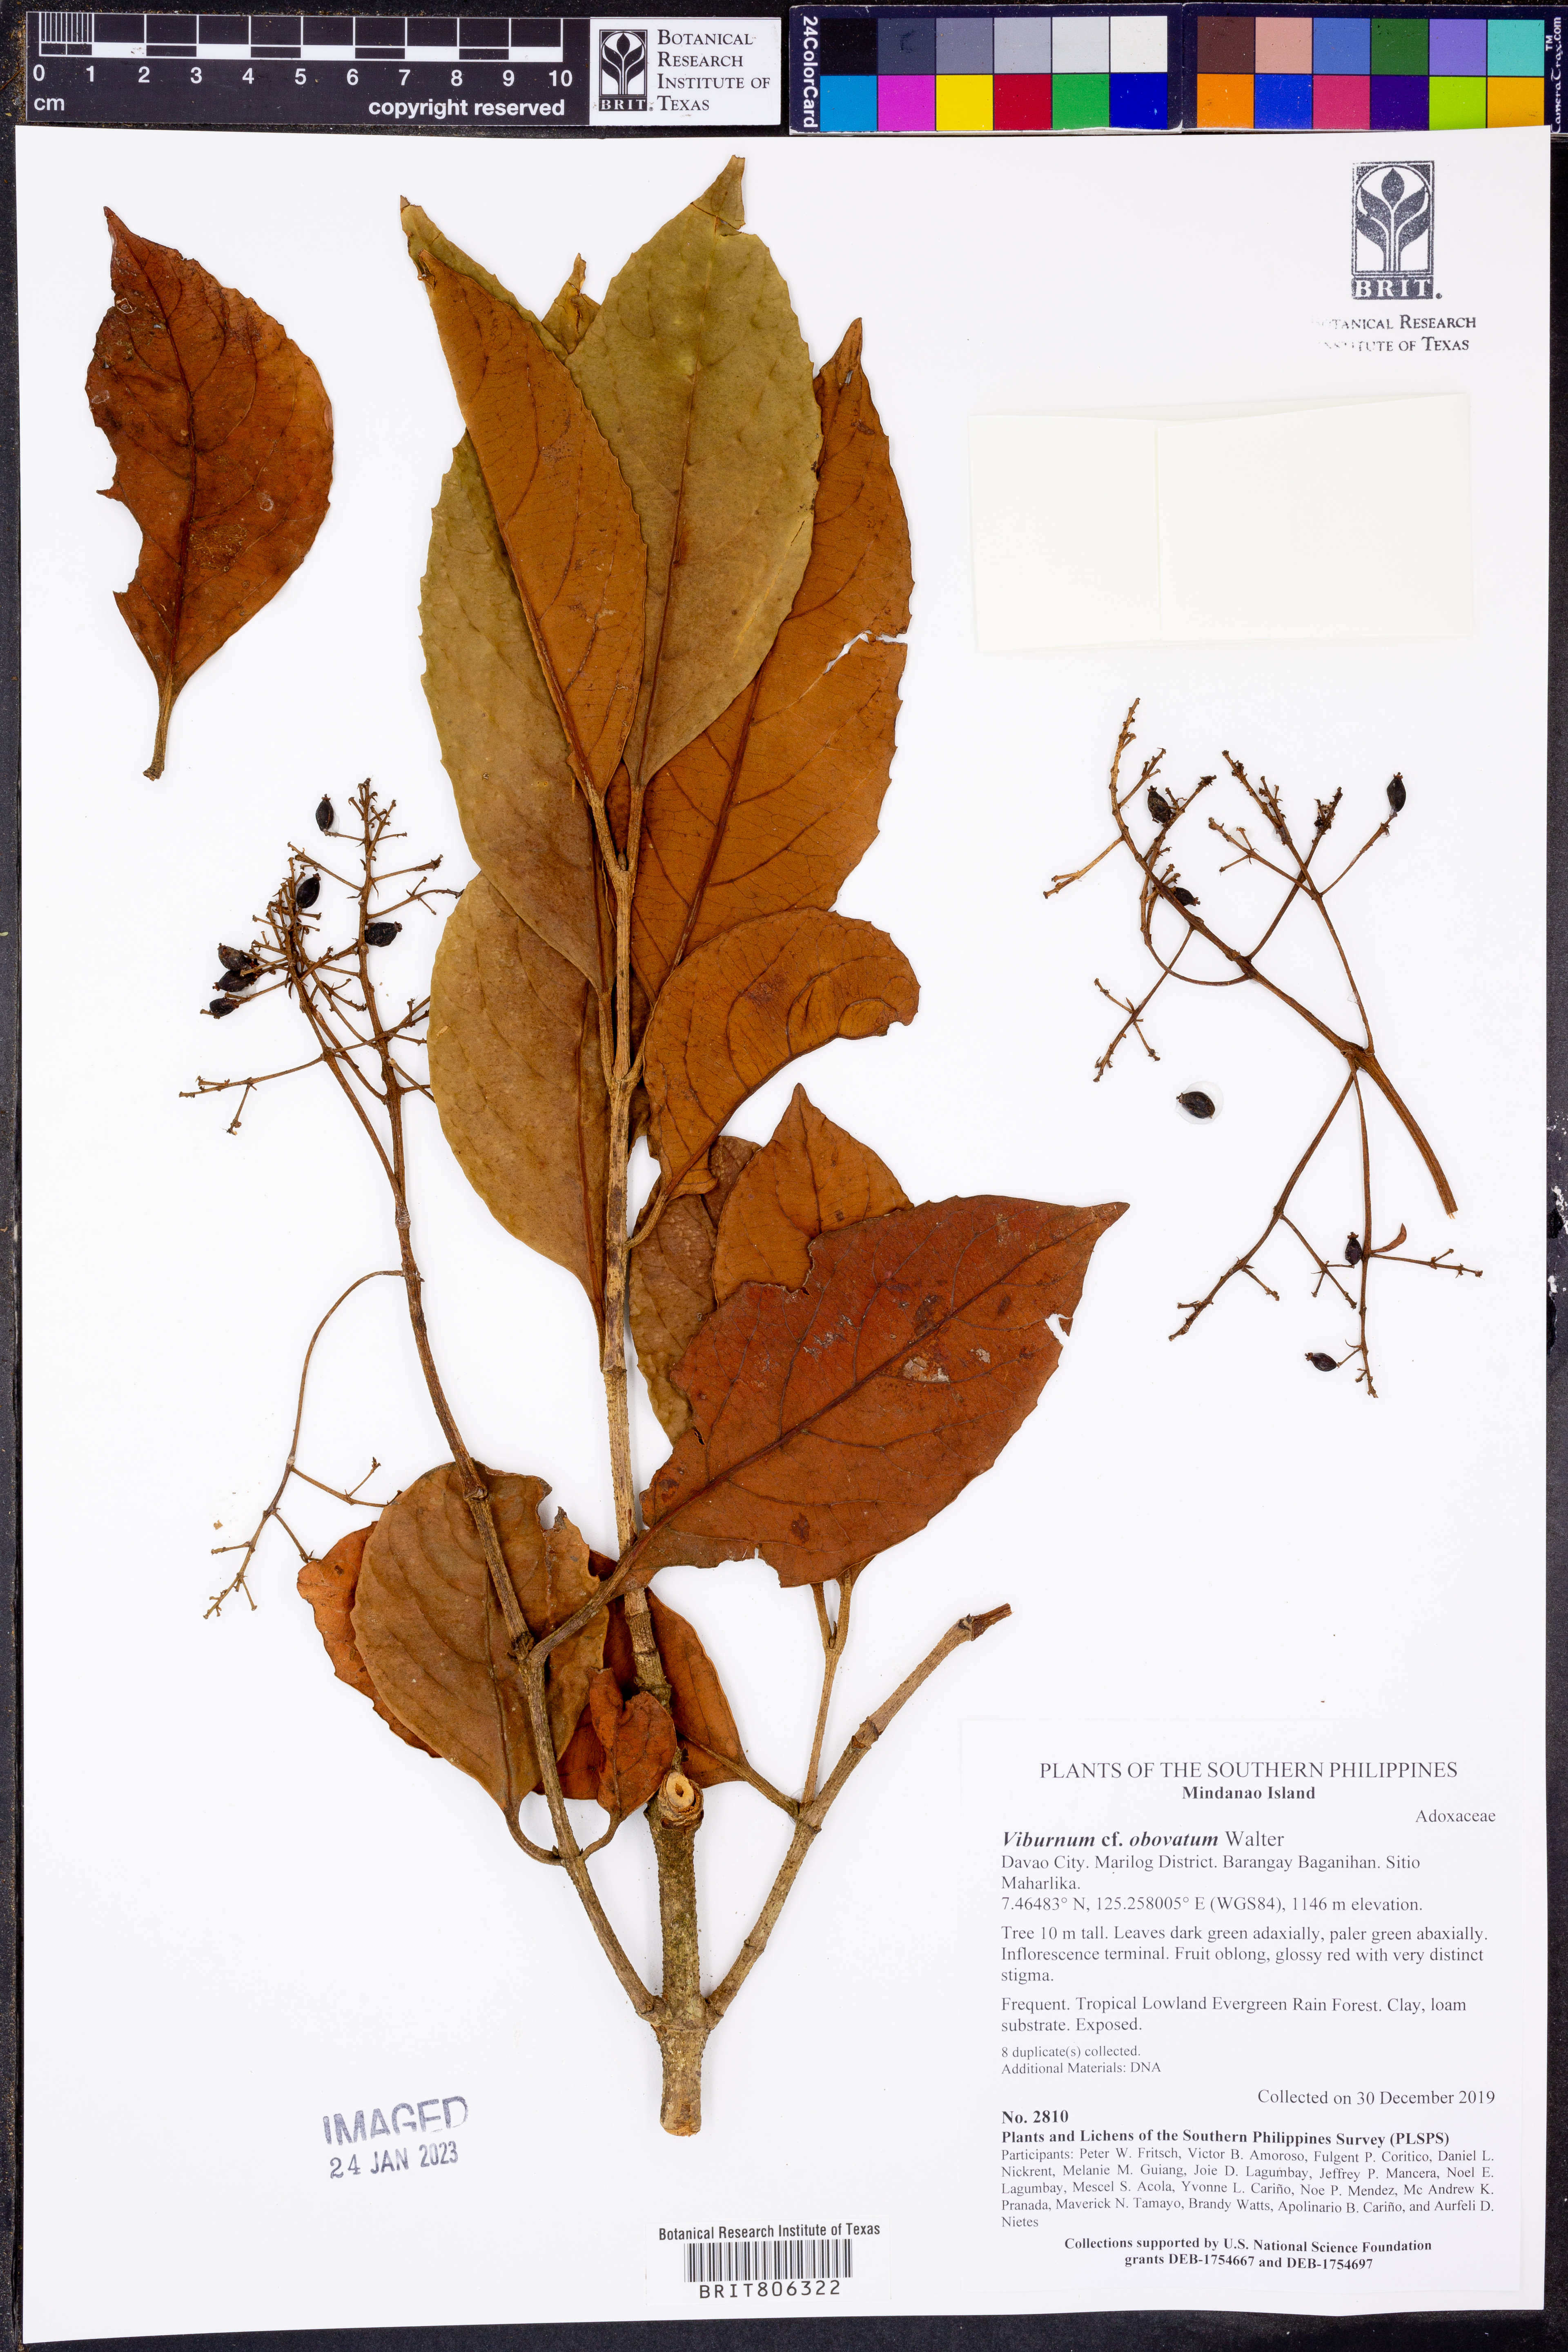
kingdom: Plantae
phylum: Tracheophyta
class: Magnoliopsida
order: Dipsacales
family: Viburnaceae
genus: Viburnum
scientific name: Viburnum odoratissimum
